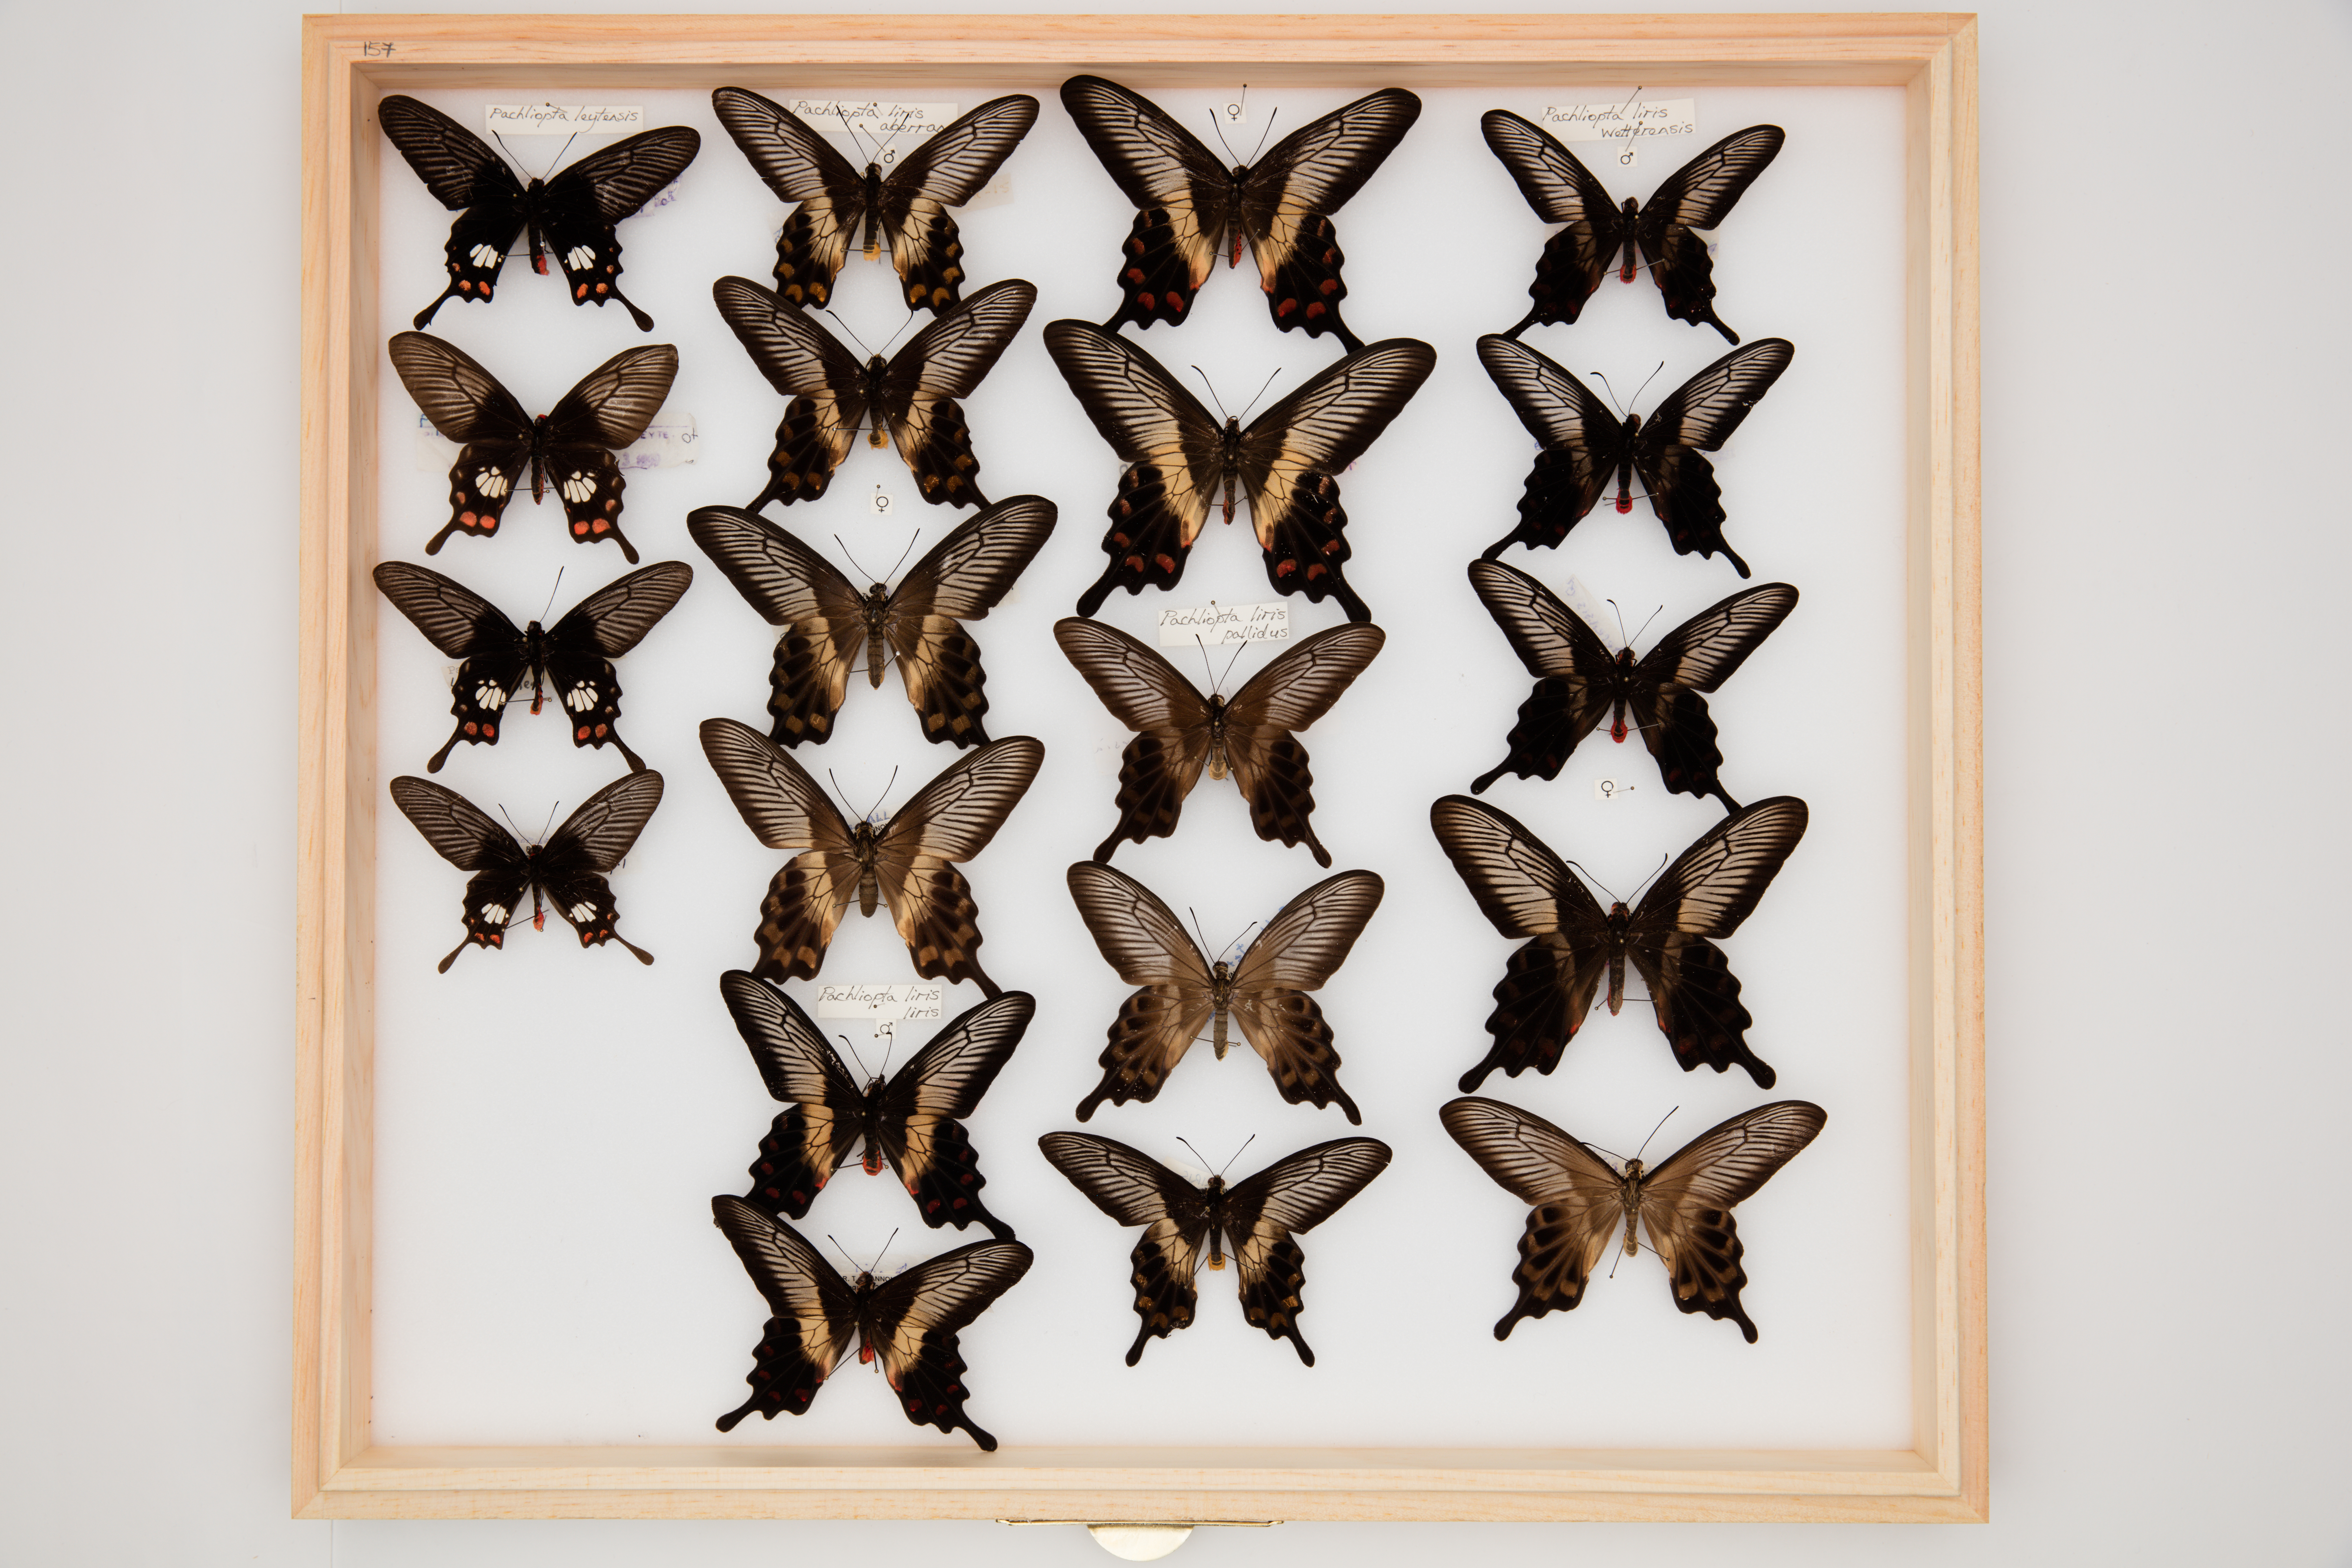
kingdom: Animalia
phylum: Arthropoda
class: Insecta
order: Lepidoptera
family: Papilionidae
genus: Pachliopta
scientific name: Pachliopta liris
